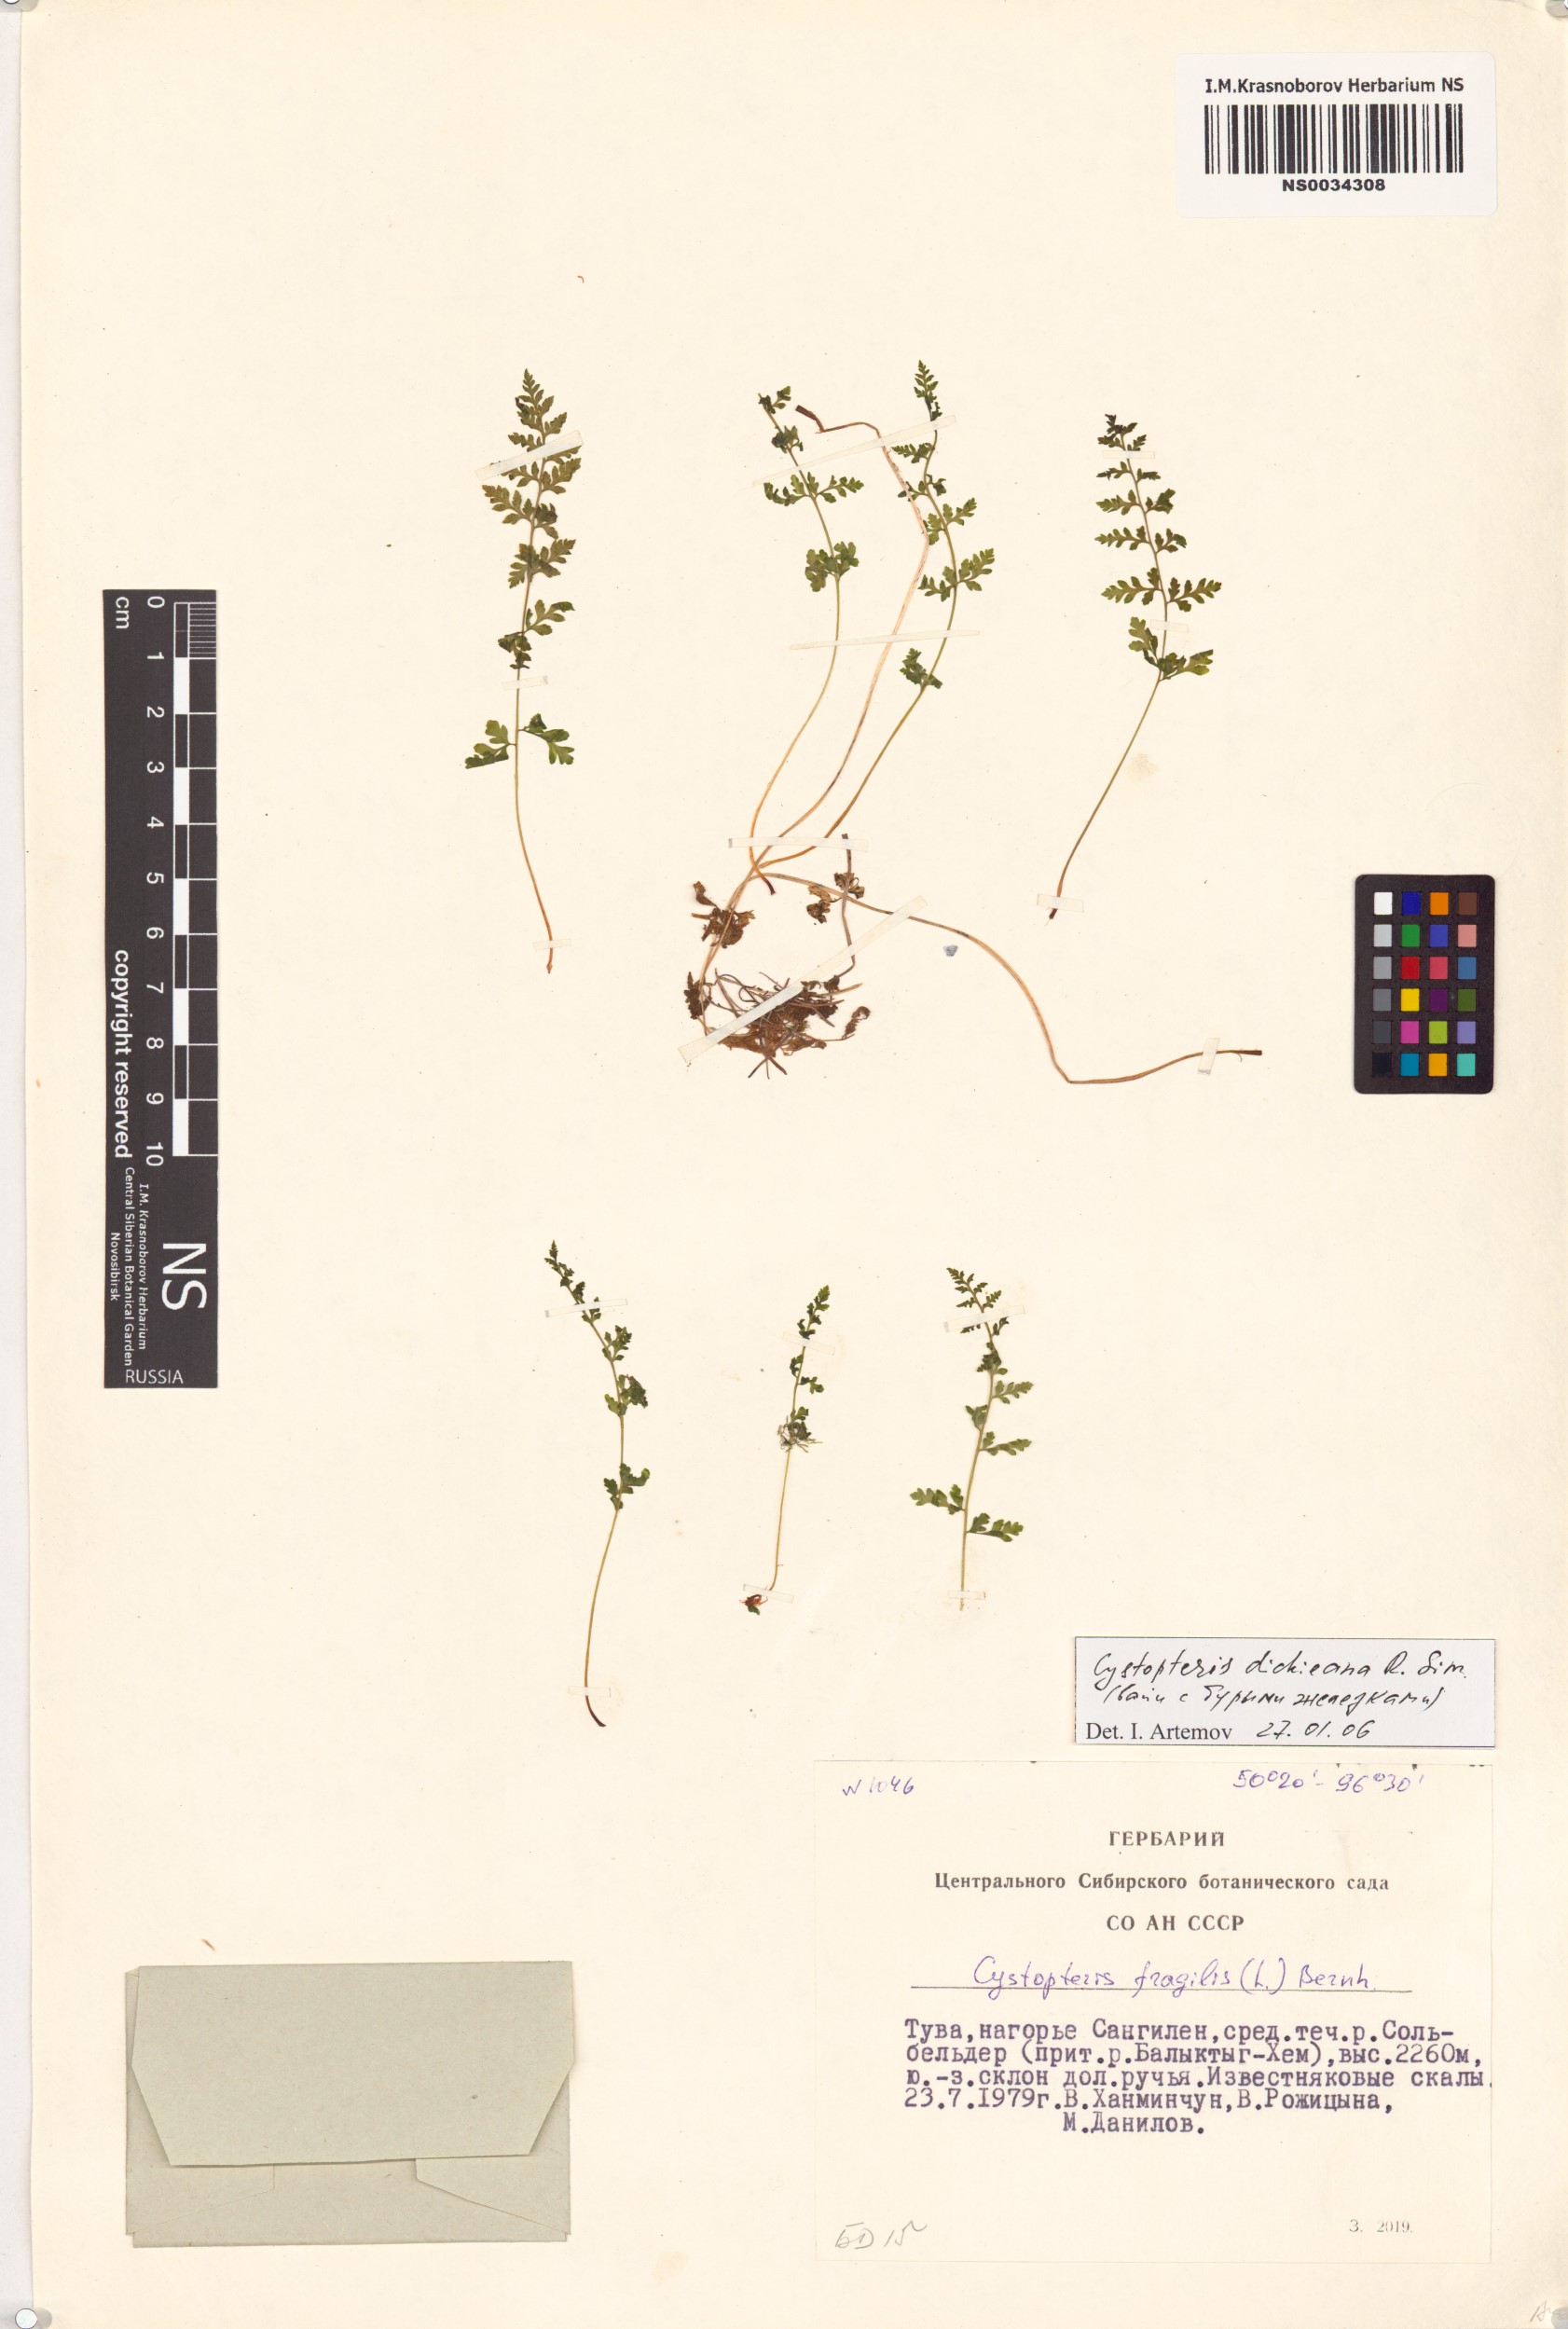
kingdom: Plantae
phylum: Tracheophyta
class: Polypodiopsida
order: Polypodiales
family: Cystopteridaceae
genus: Cystopteris
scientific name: Cystopteris dickieana
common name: Dickie's bladder-fern
